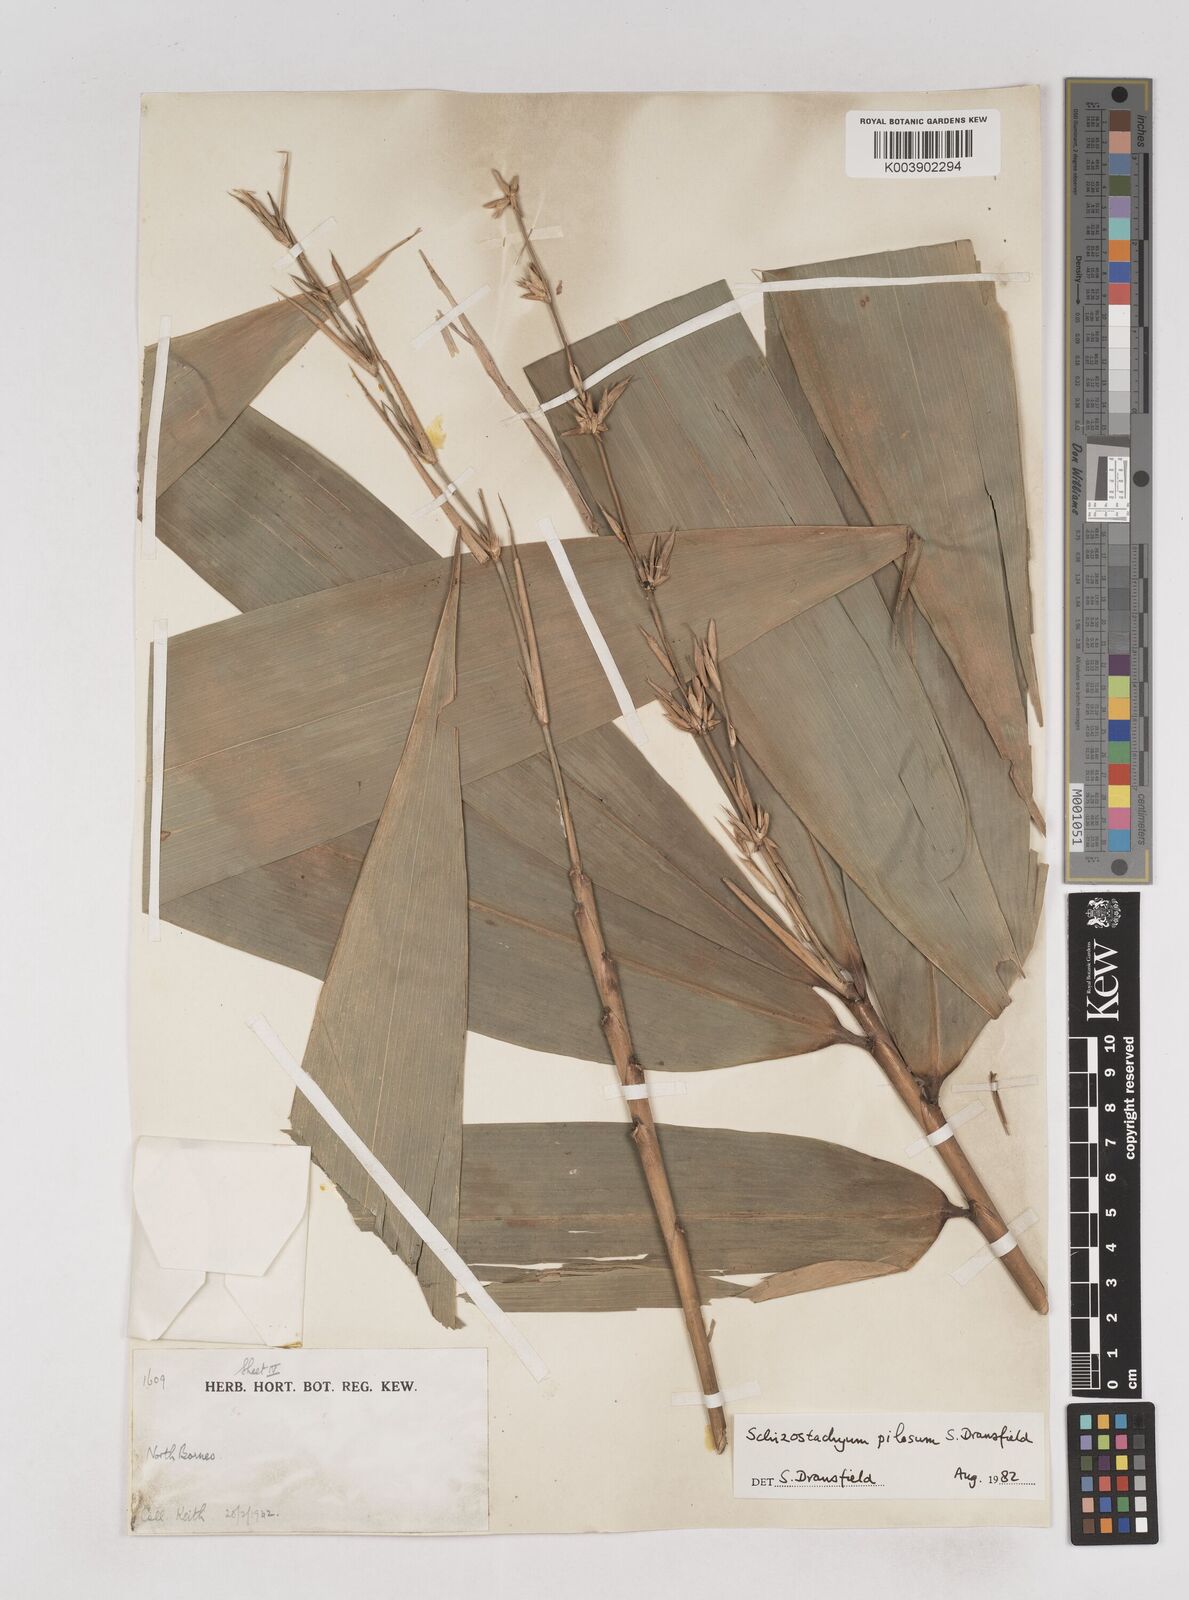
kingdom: Plantae
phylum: Tracheophyta
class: Liliopsida
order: Poales
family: Poaceae
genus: Schizostachyum
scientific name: Schizostachyum pilosum
